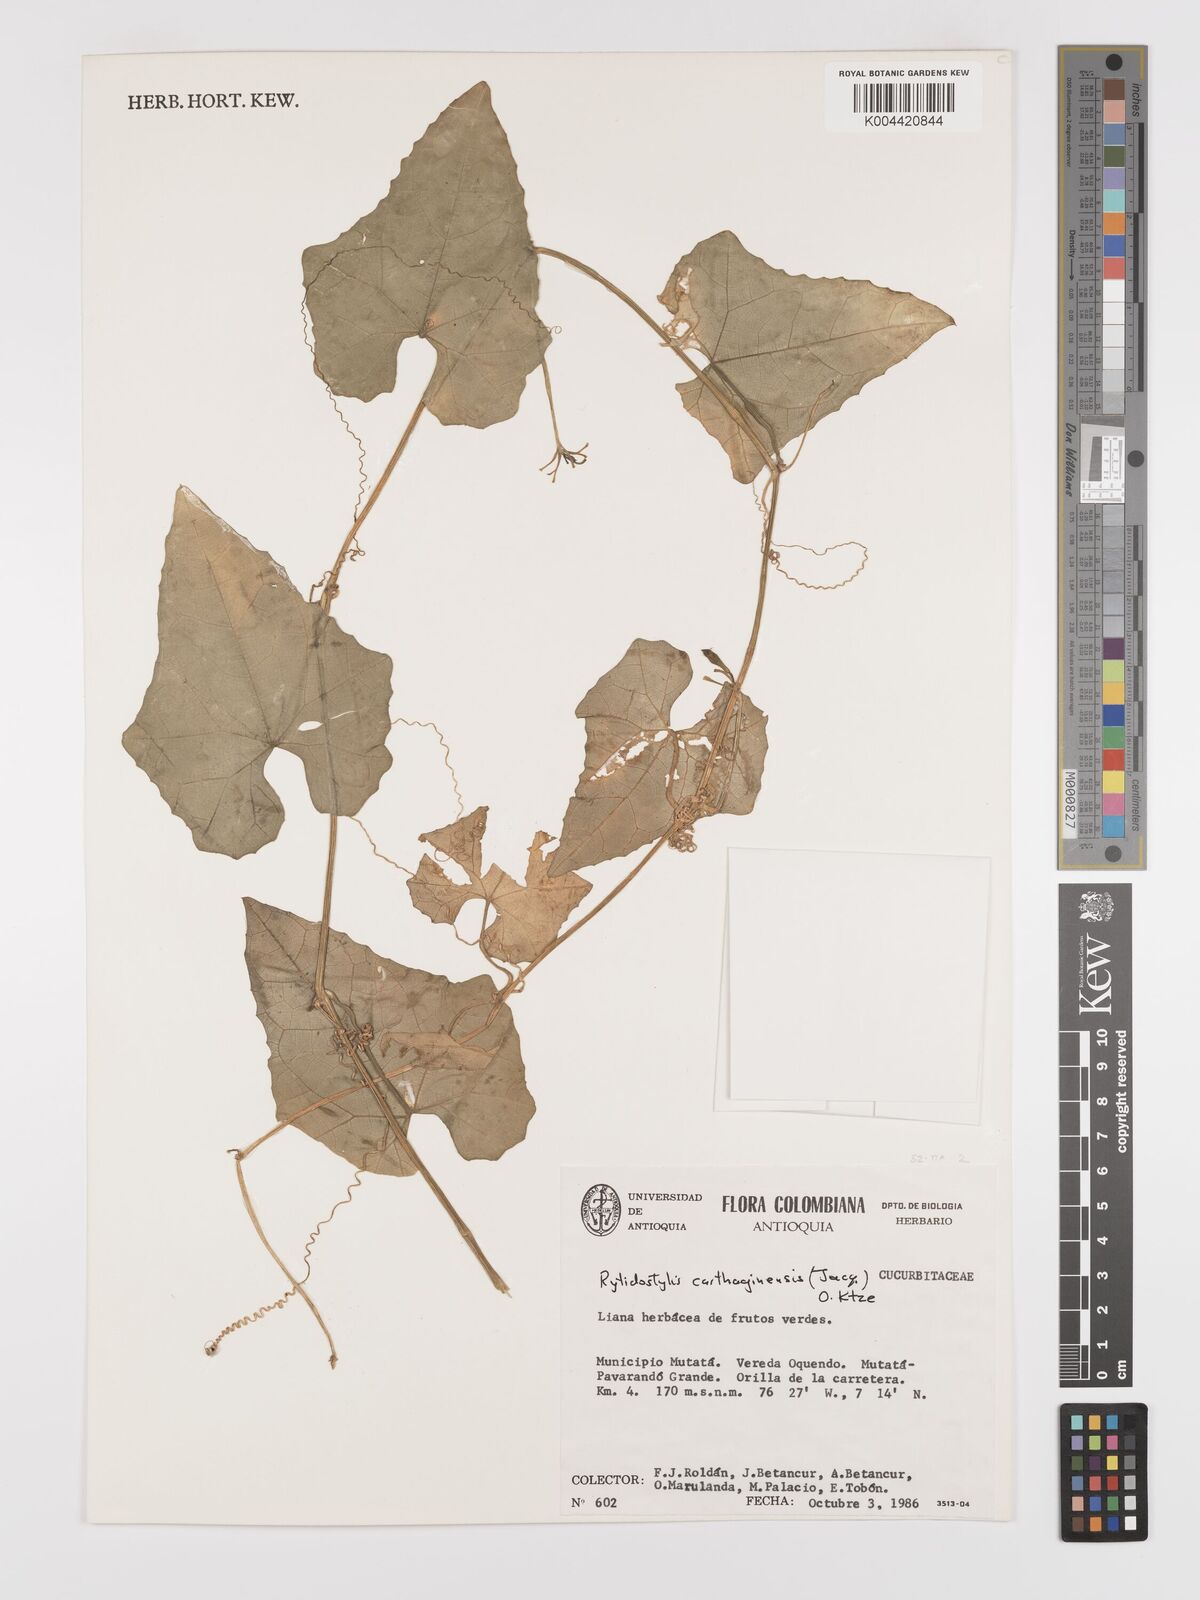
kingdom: Plantae
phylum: Tracheophyta
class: Magnoliopsida
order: Cucurbitales
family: Cucurbitaceae
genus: Cyclanthera
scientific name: Cyclanthera carthagenensis
